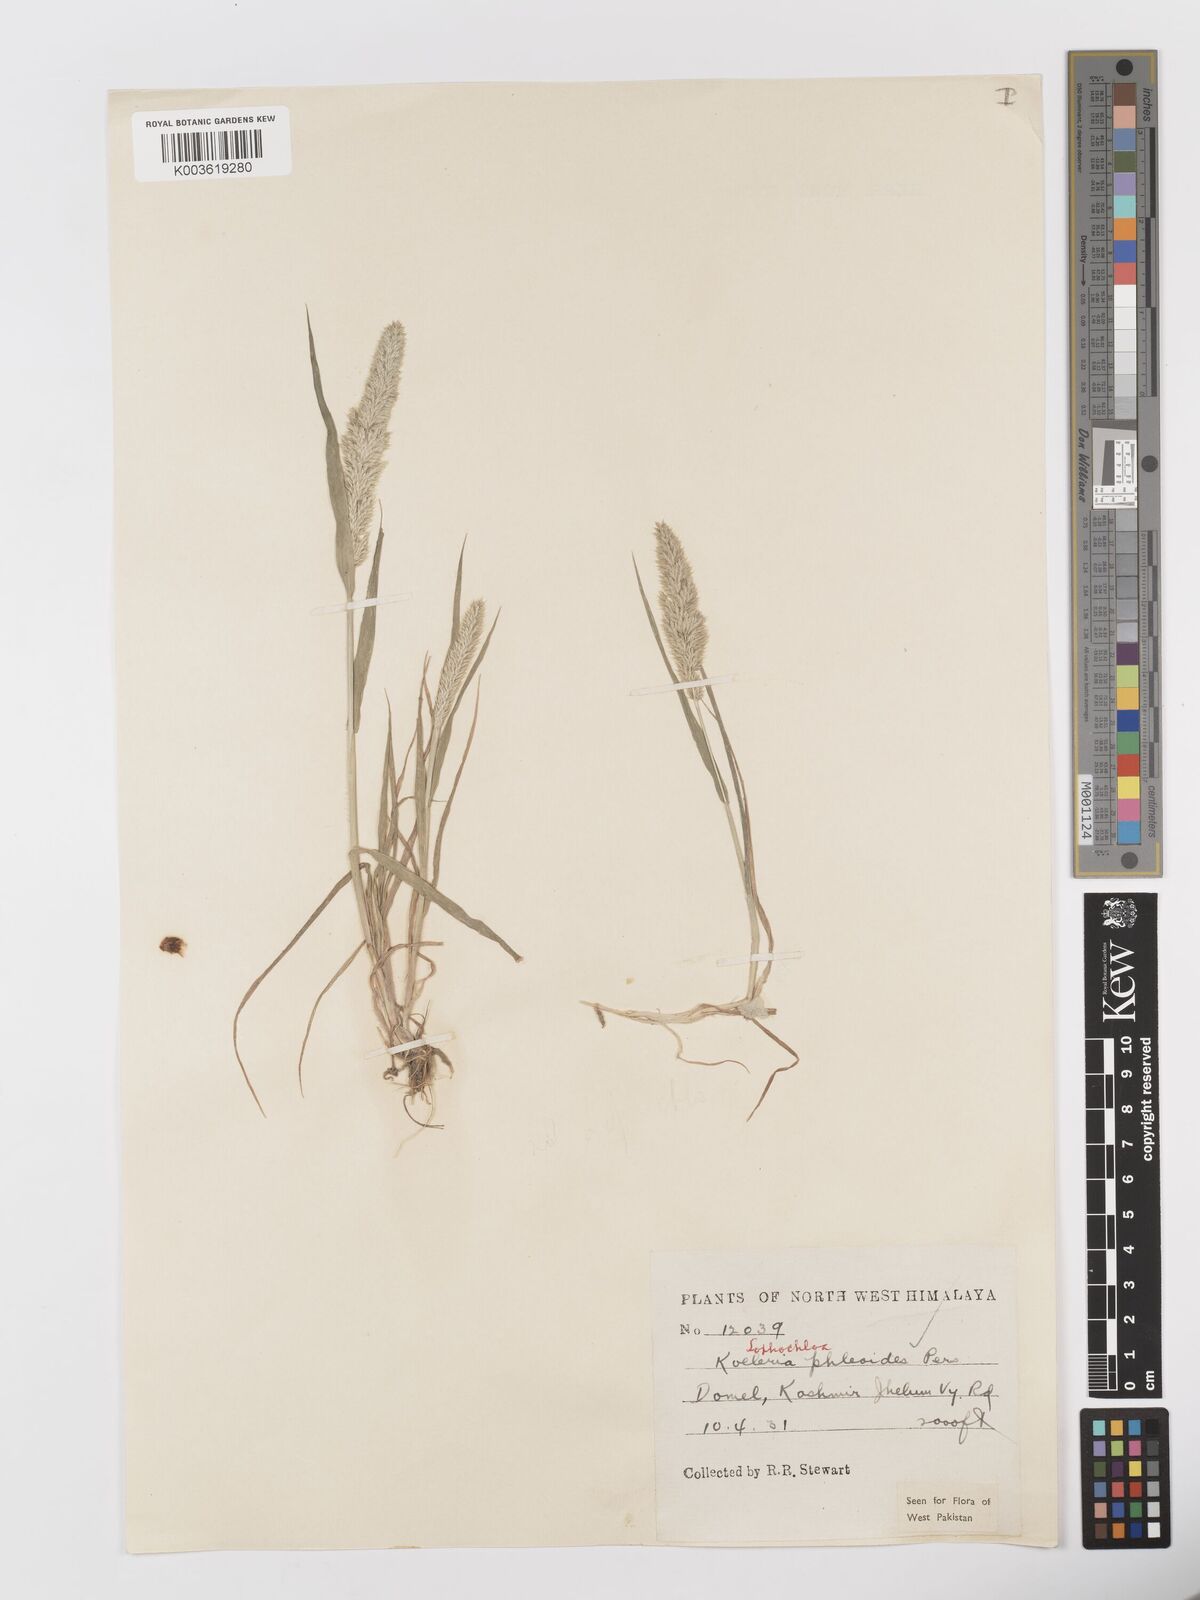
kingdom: Plantae
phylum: Tracheophyta
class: Liliopsida
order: Poales
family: Poaceae
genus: Rostraria
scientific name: Rostraria cristata
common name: Mediterranean hair-grass
